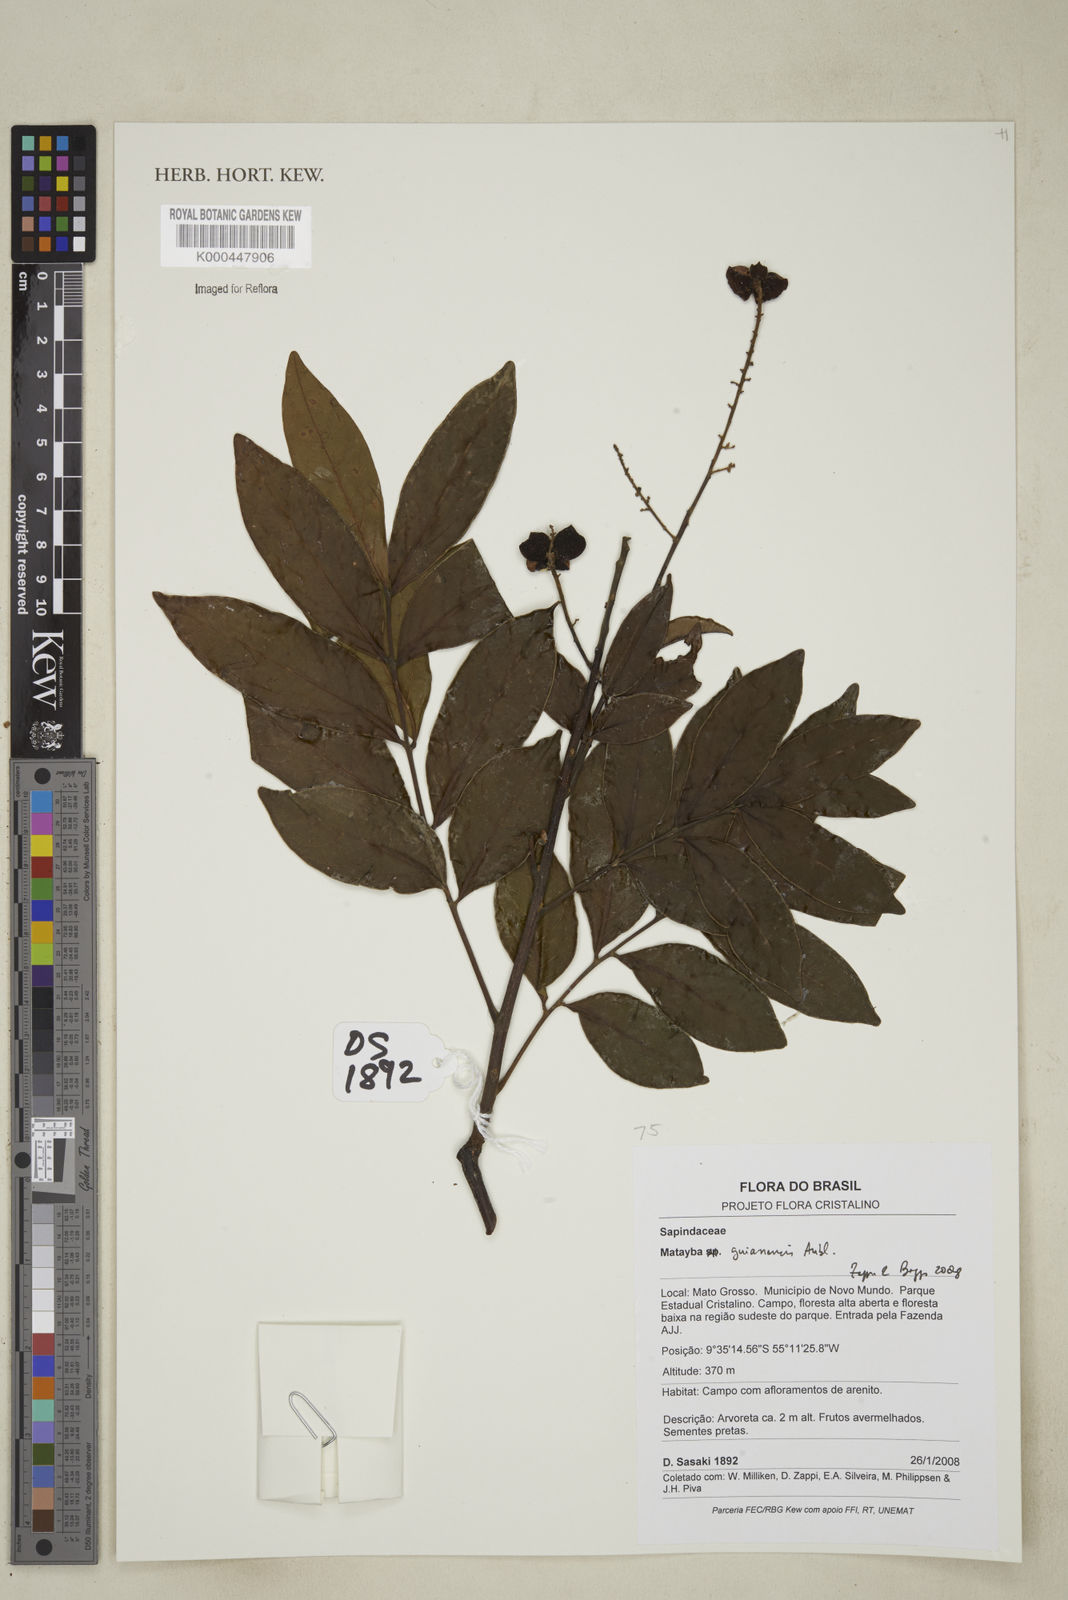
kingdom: Plantae
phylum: Tracheophyta
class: Magnoliopsida
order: Sapindales
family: Sapindaceae
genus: Matayba
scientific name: Matayba guianensis
